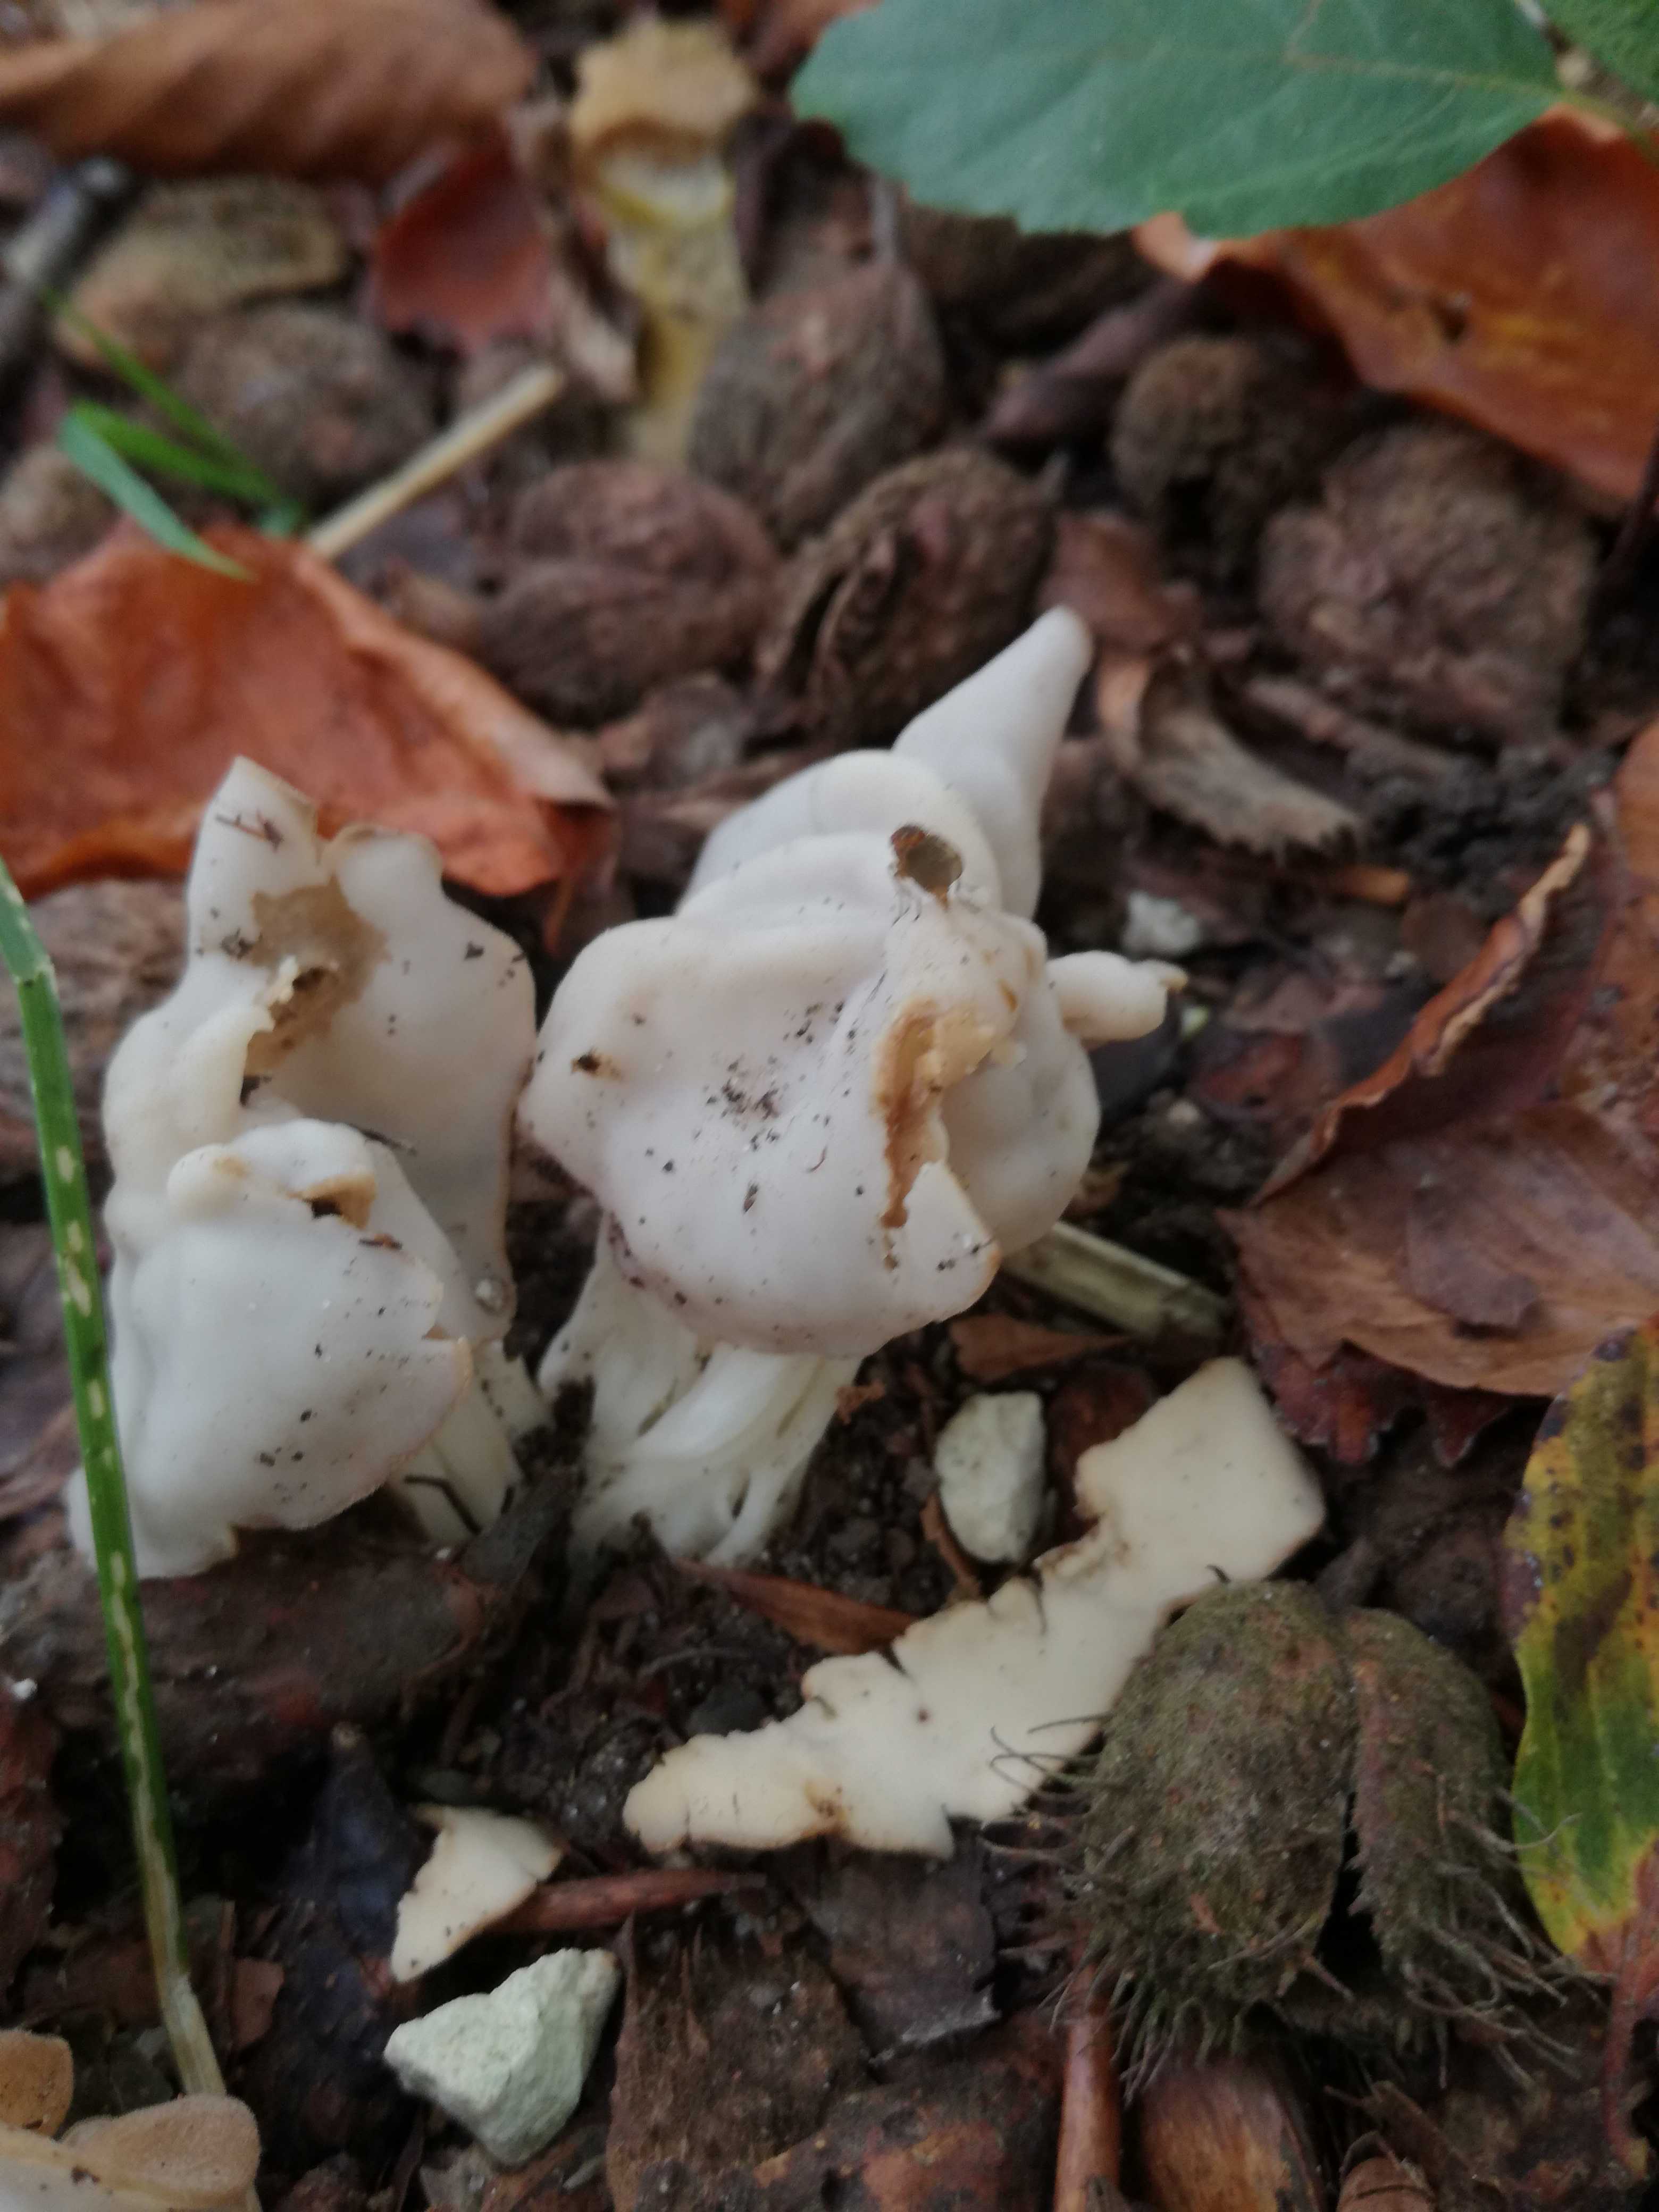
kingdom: Fungi
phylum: Ascomycota
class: Pezizomycetes
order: Pezizales
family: Helvellaceae
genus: Helvella
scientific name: Helvella crispa
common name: kruset foldhat
